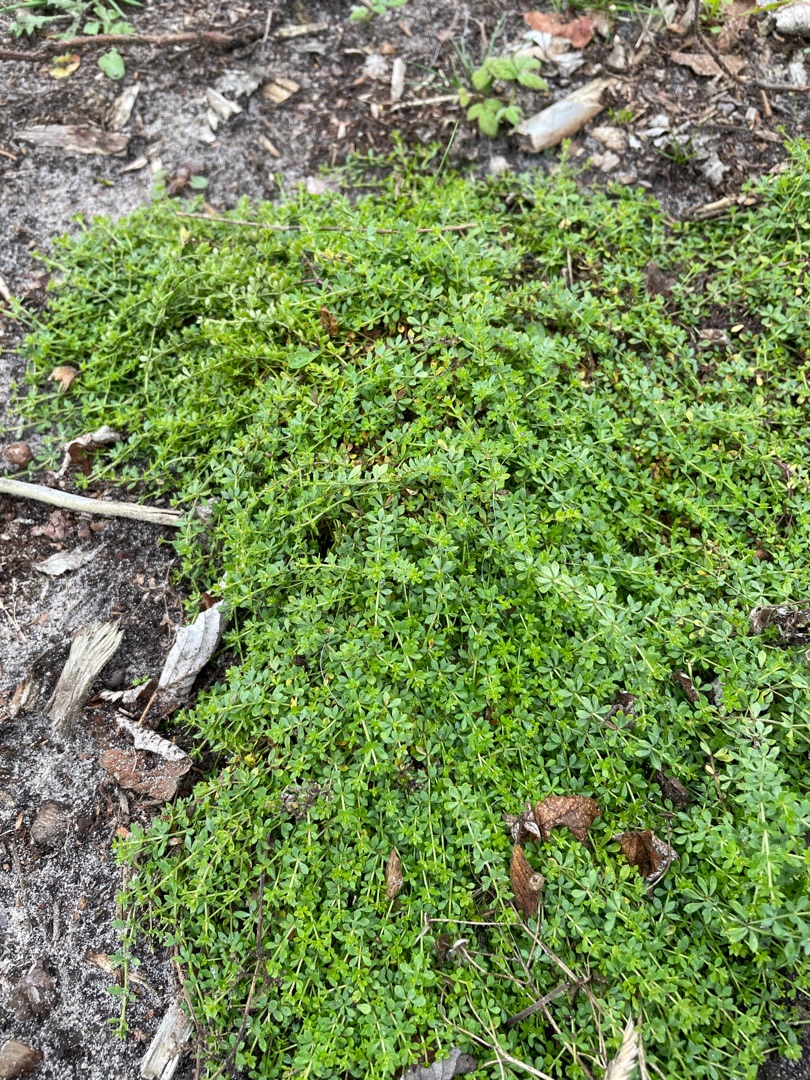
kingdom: Plantae
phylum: Tracheophyta
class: Magnoliopsida
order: Gentianales
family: Rubiaceae
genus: Galium
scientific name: Galium saxatile
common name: Lyng-snerre
